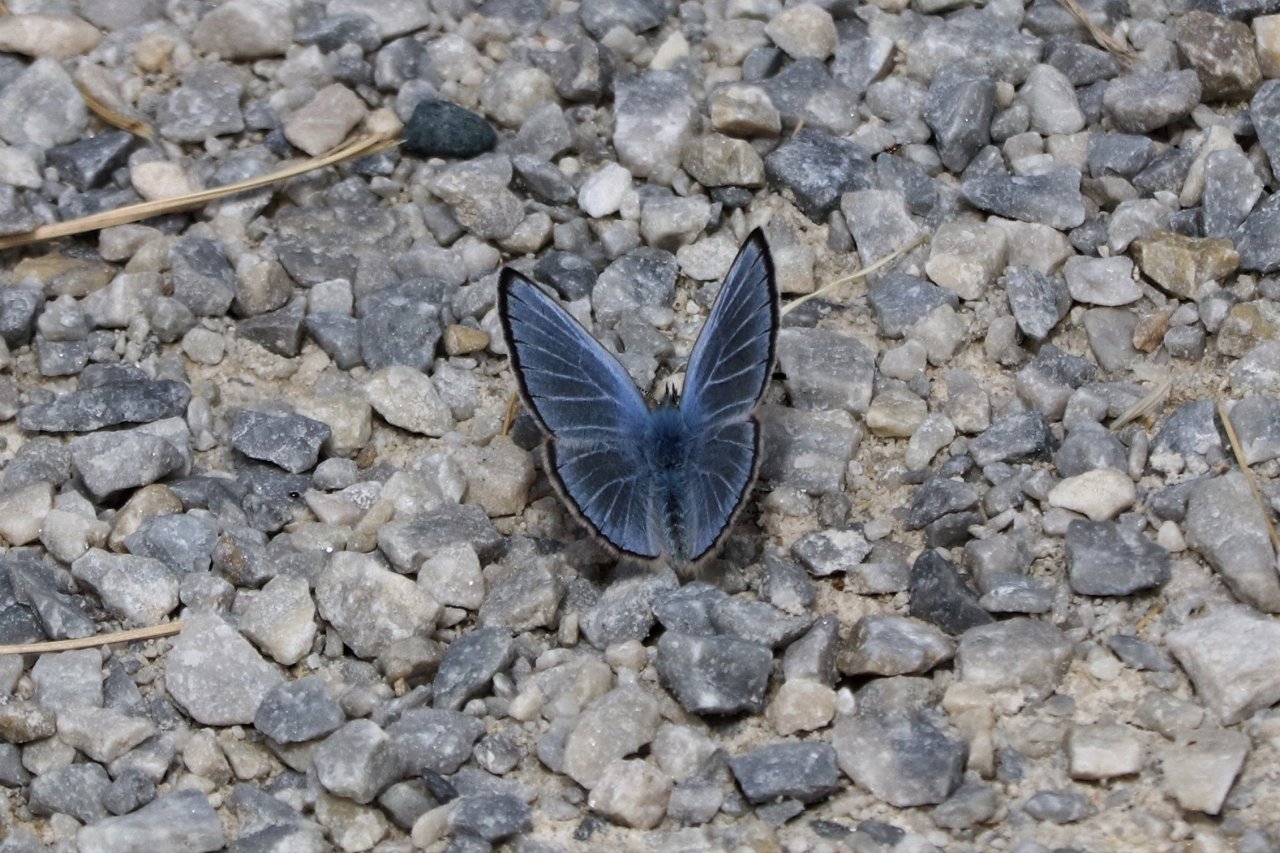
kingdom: Animalia
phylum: Arthropoda
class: Insecta
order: Lepidoptera
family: Lycaenidae
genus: Glaucopsyche
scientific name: Glaucopsyche lygdamus
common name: Silvery Blue
